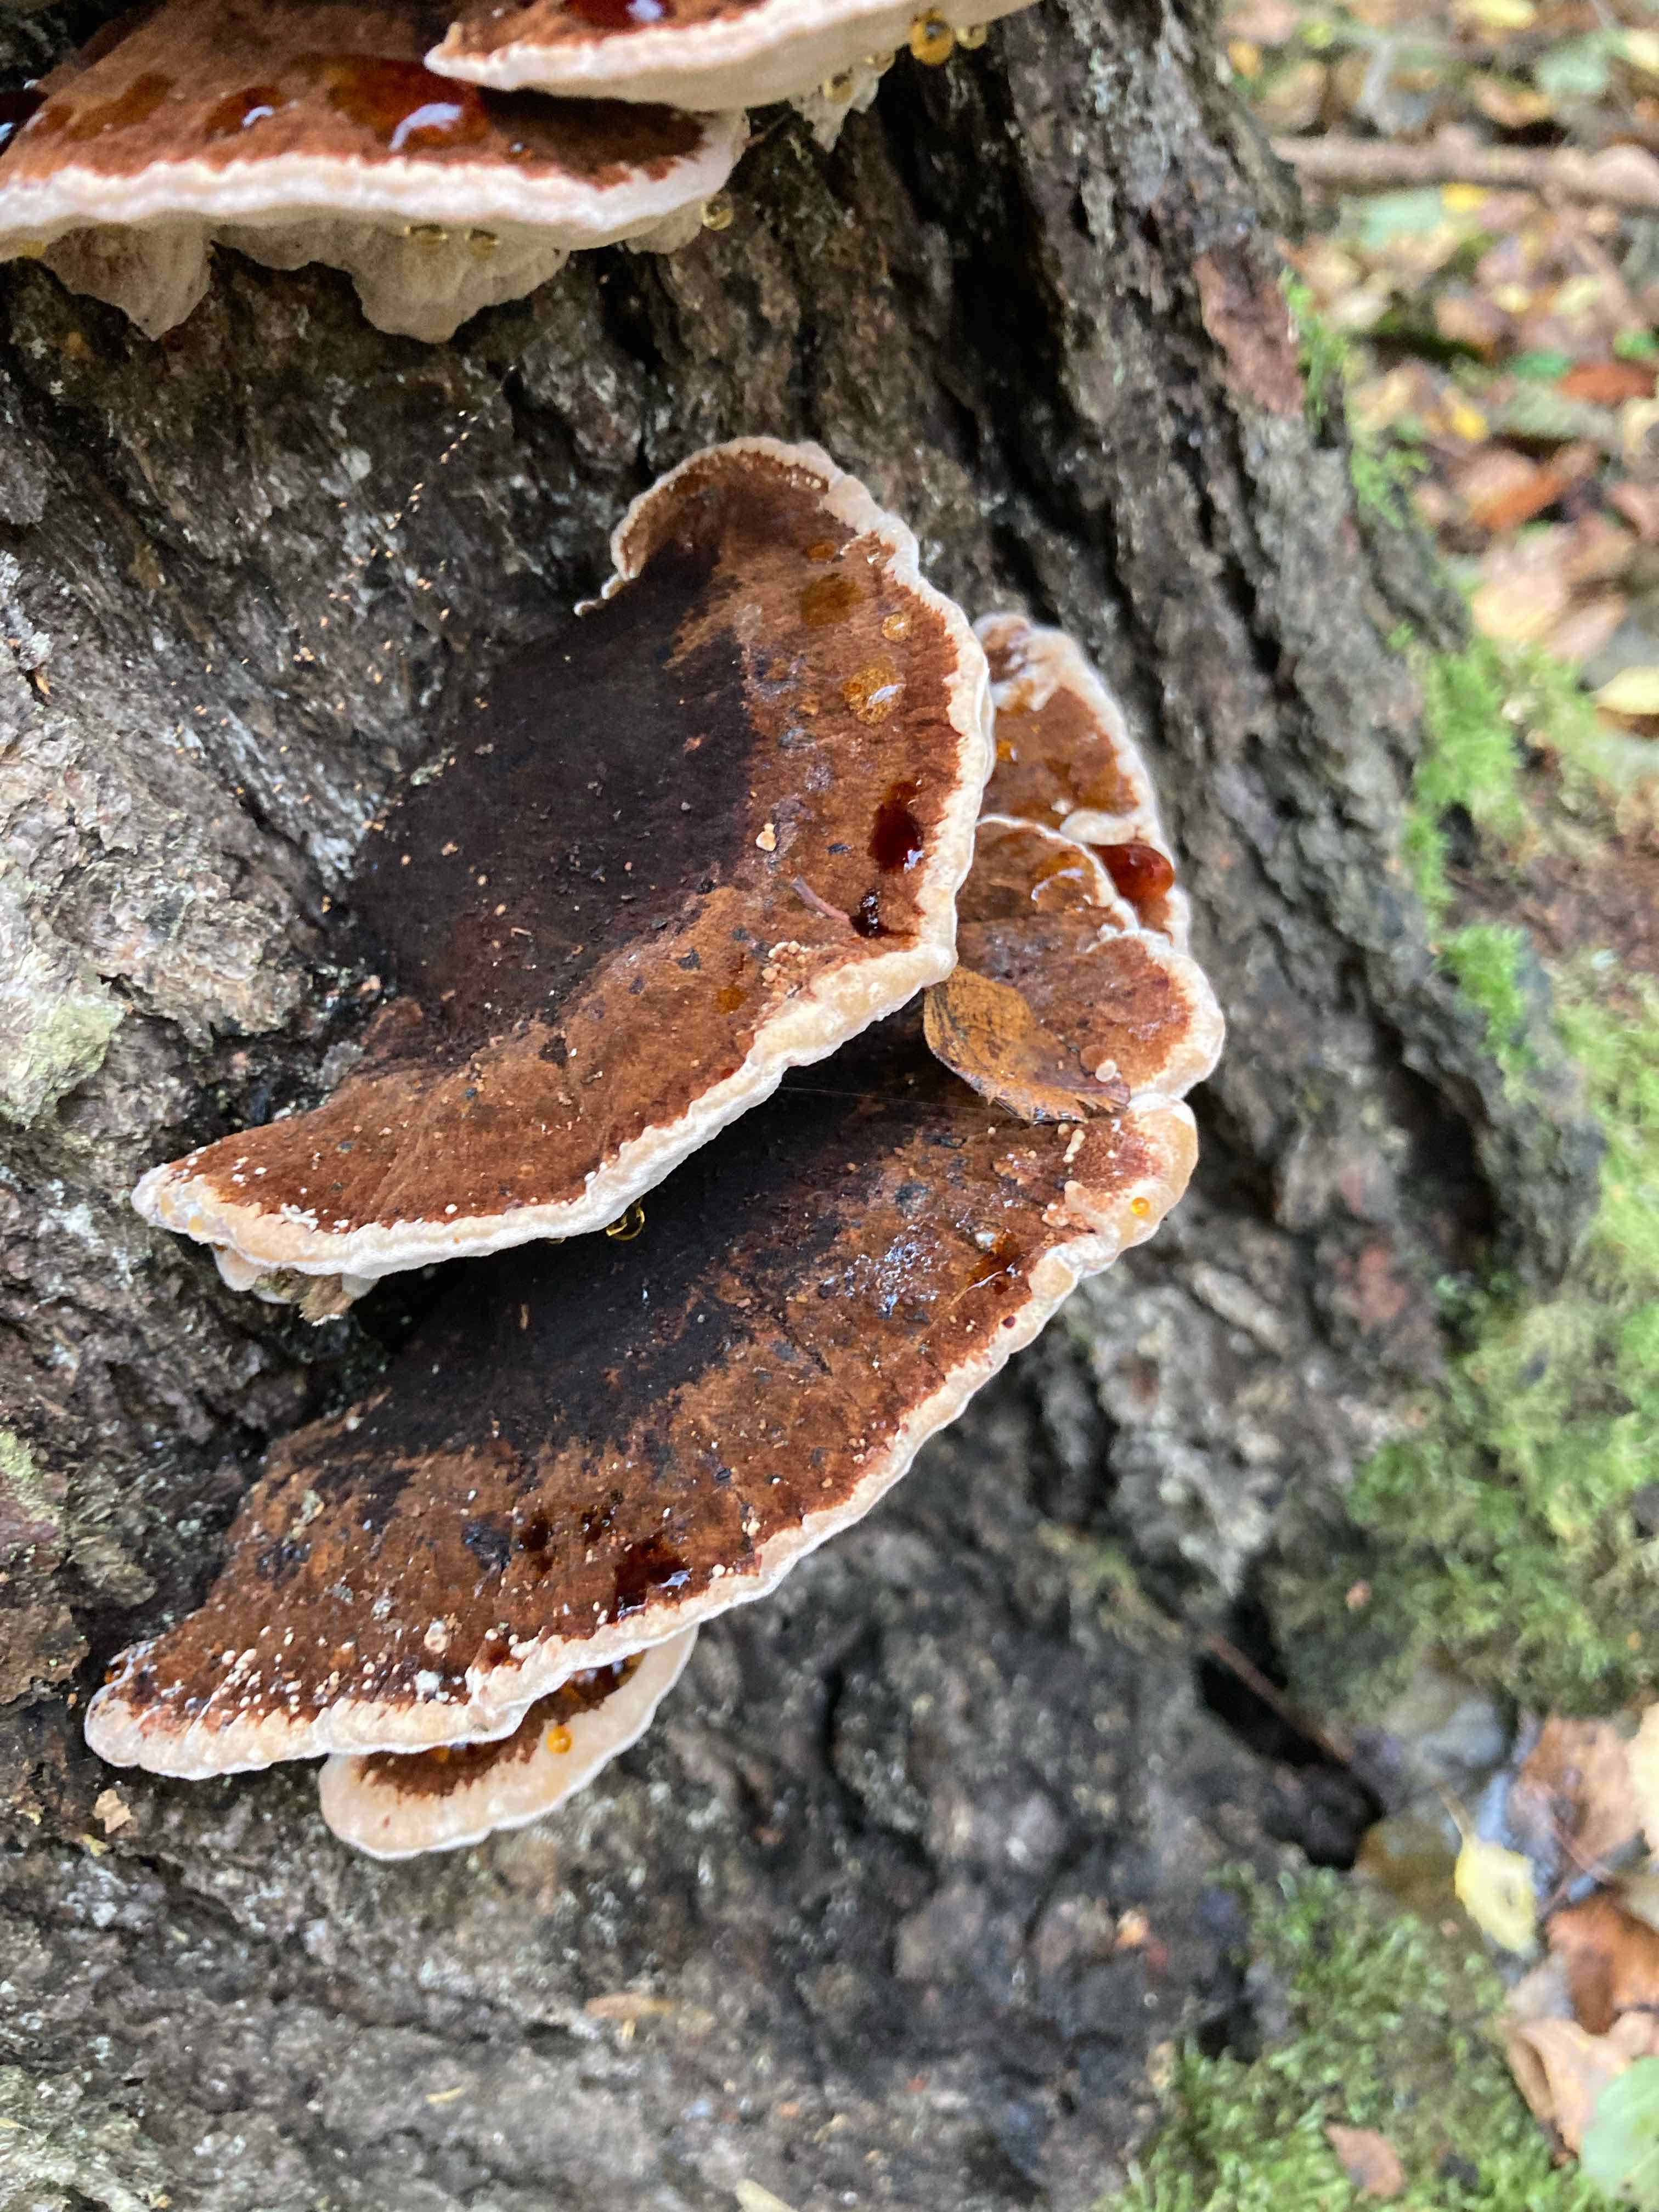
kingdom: Fungi
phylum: Basidiomycota
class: Agaricomycetes
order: Polyporales
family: Ischnodermataceae
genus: Ischnoderma
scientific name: Ischnoderma benzoinum
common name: gran-tjæreporesvamp
